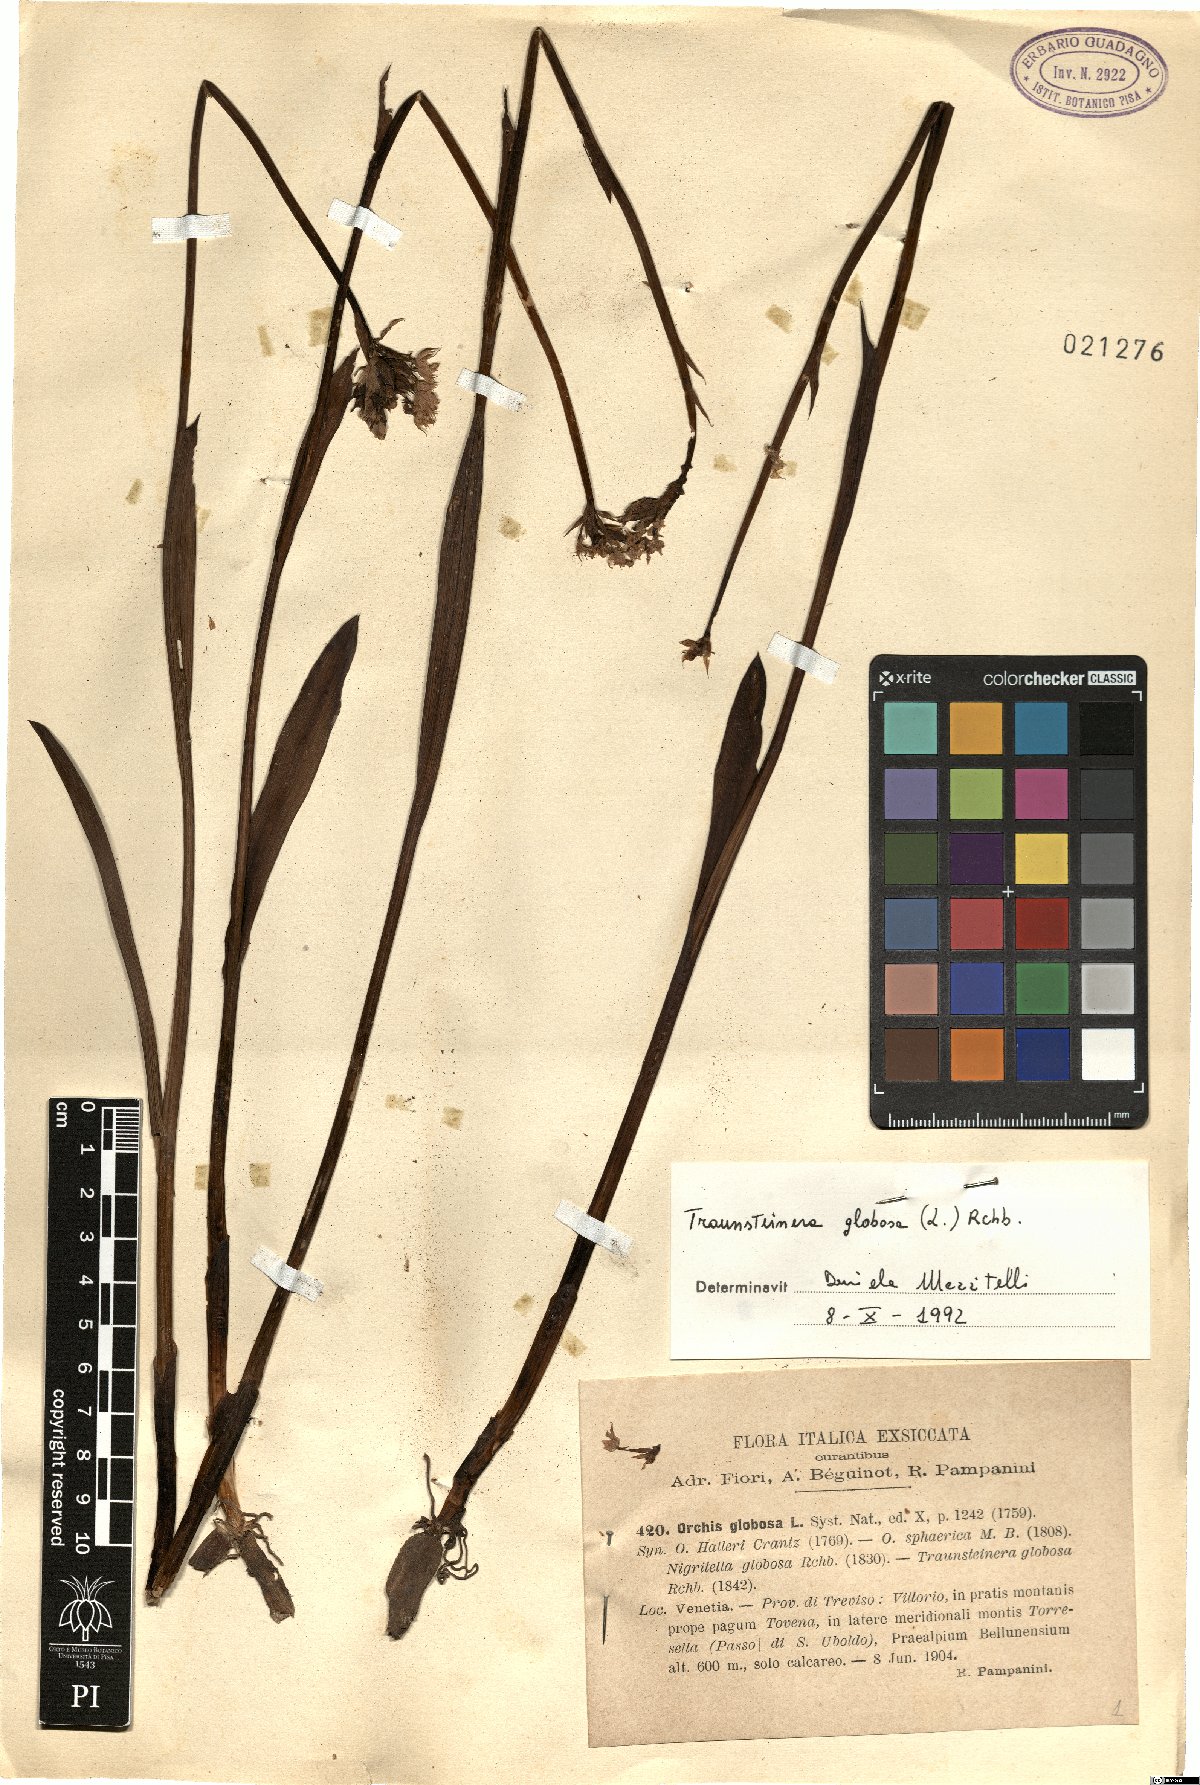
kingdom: Plantae
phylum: Tracheophyta
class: Liliopsida
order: Asparagales
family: Orchidaceae
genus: Traunsteinera
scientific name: Traunsteinera globosa
